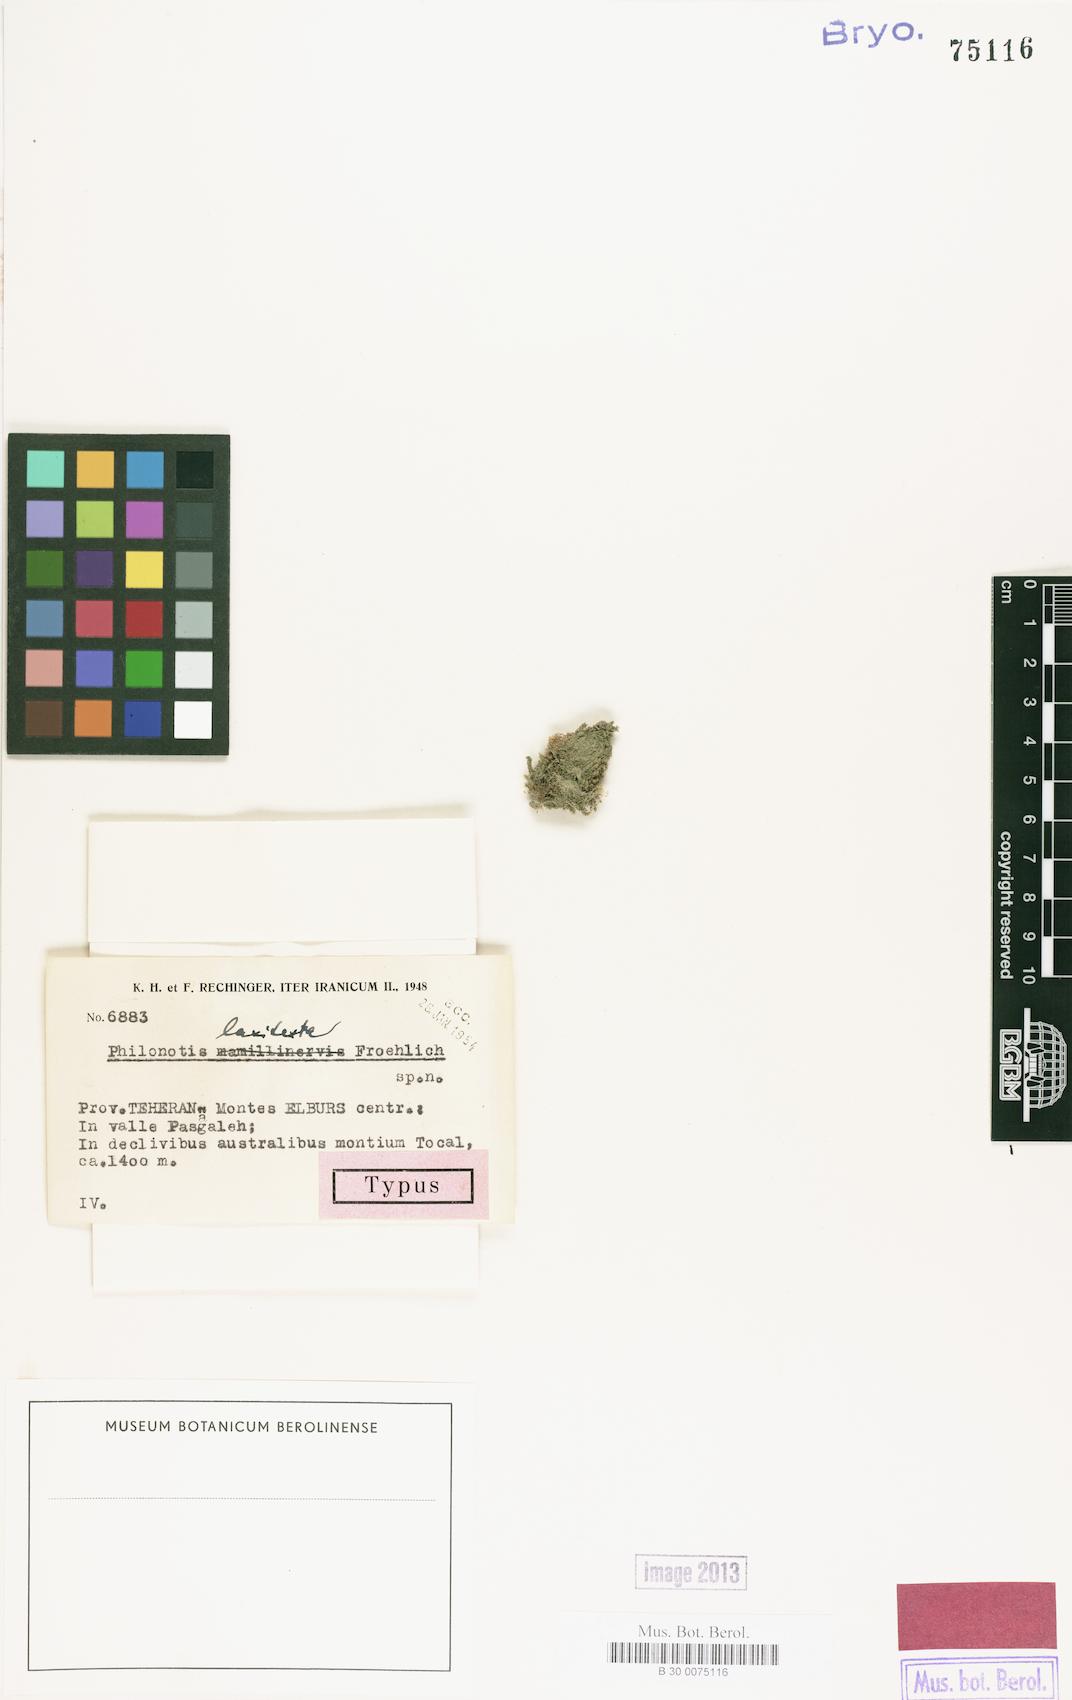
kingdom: Plantae
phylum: Bryophyta
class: Bryopsida
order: Bartramiales
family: Bartramiaceae
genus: Philonotis
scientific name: Philonotis laxitexta
